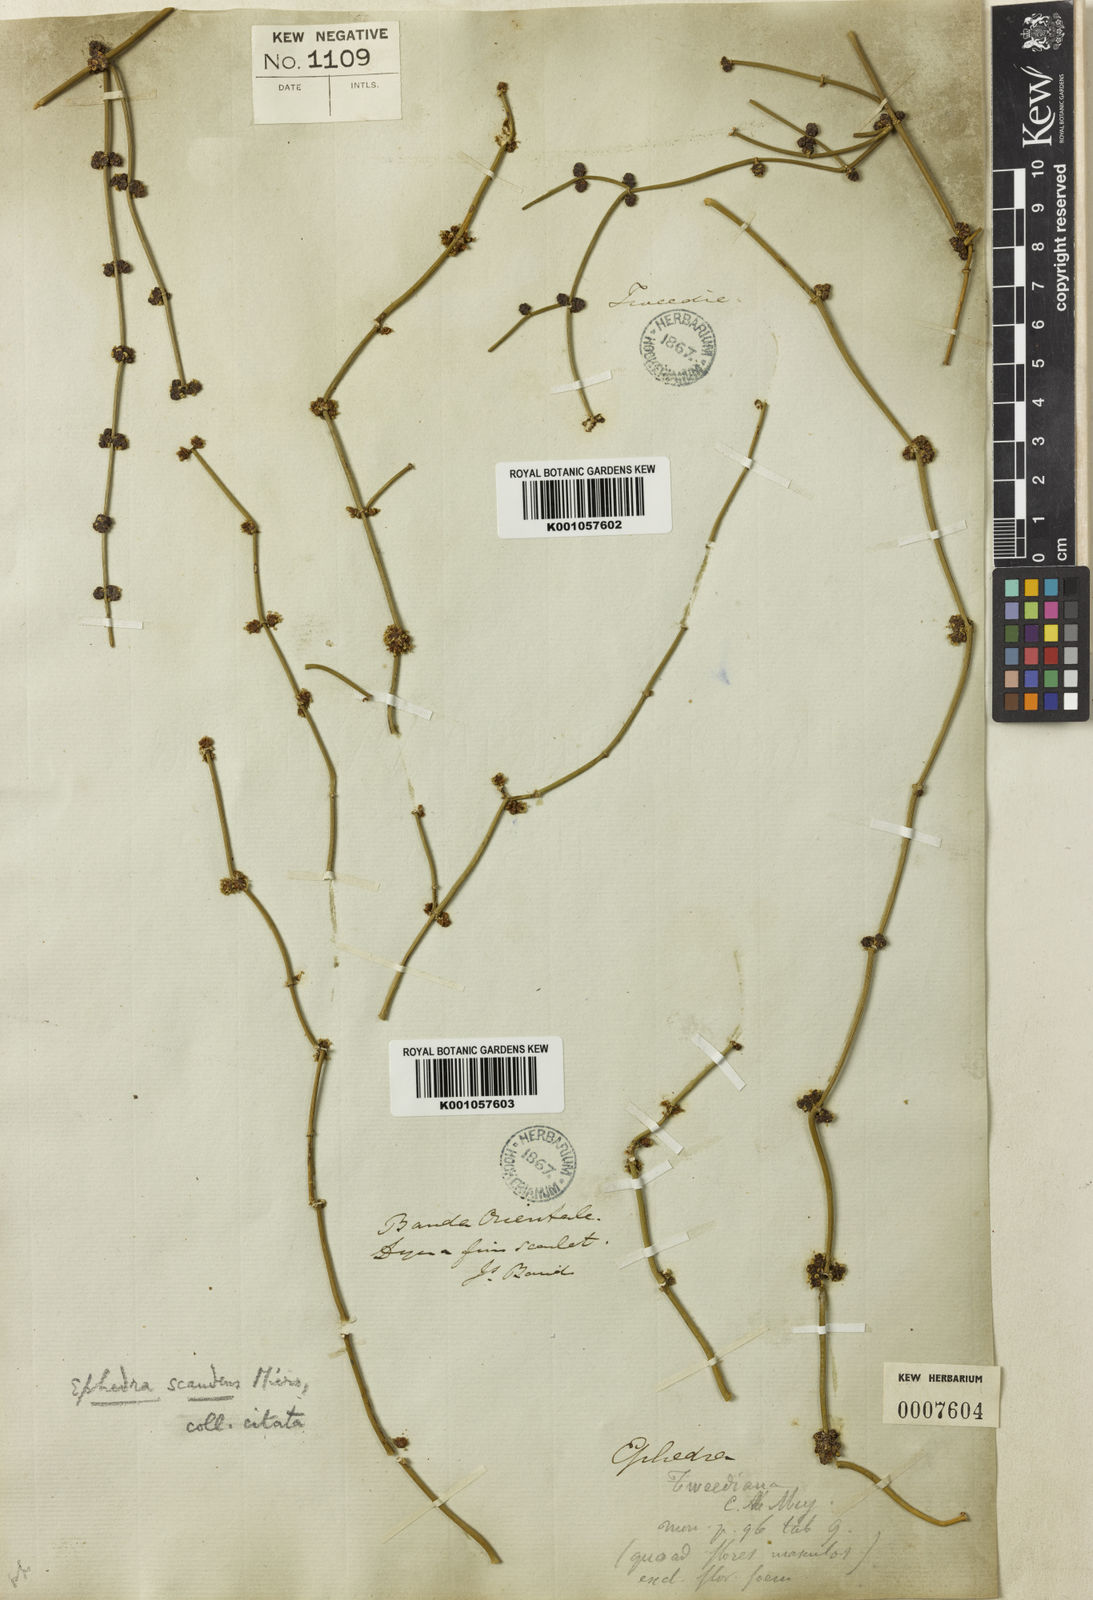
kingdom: Plantae
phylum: Tracheophyta
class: Gnetopsida
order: Ephedrales
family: Ephedraceae
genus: Ephedra
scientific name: Ephedra tweedieana
